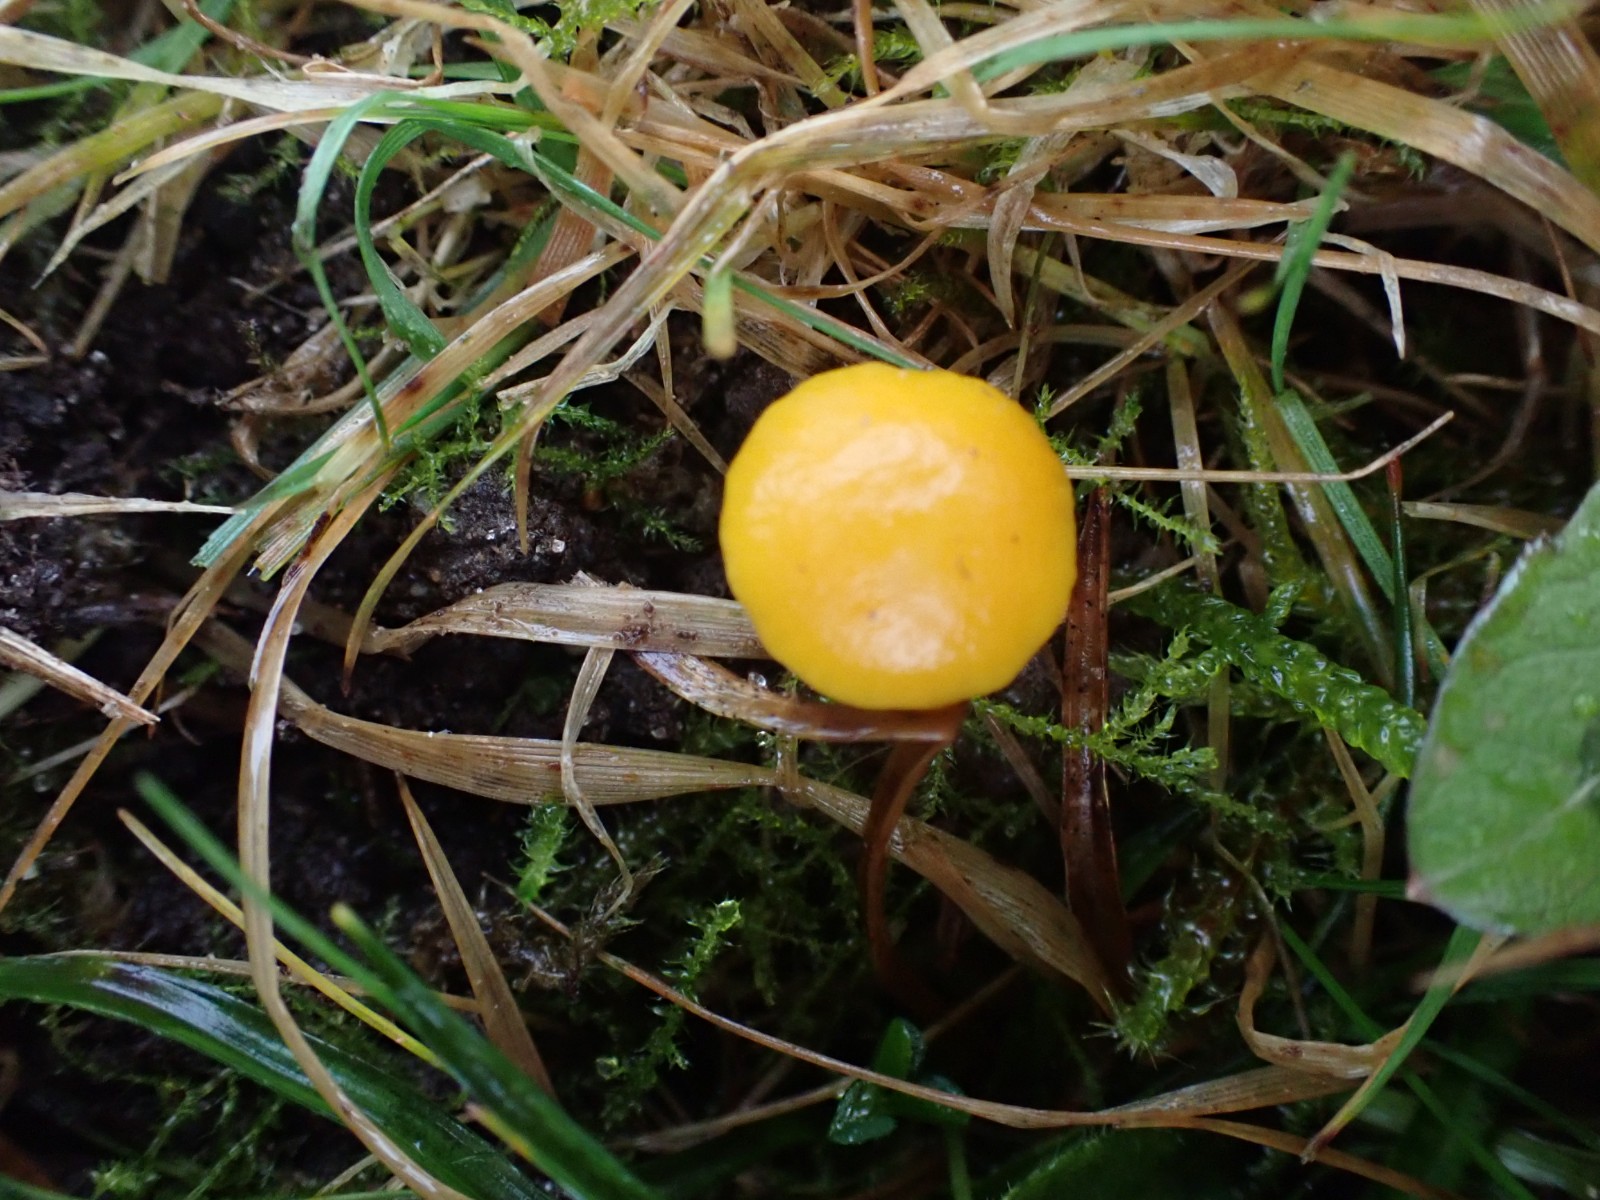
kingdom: Fungi
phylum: Basidiomycota
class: Agaricomycetes
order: Agaricales
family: Hygrophoraceae
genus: Hygrocybe
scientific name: Hygrocybe ceracea
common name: voksgul vokshat
